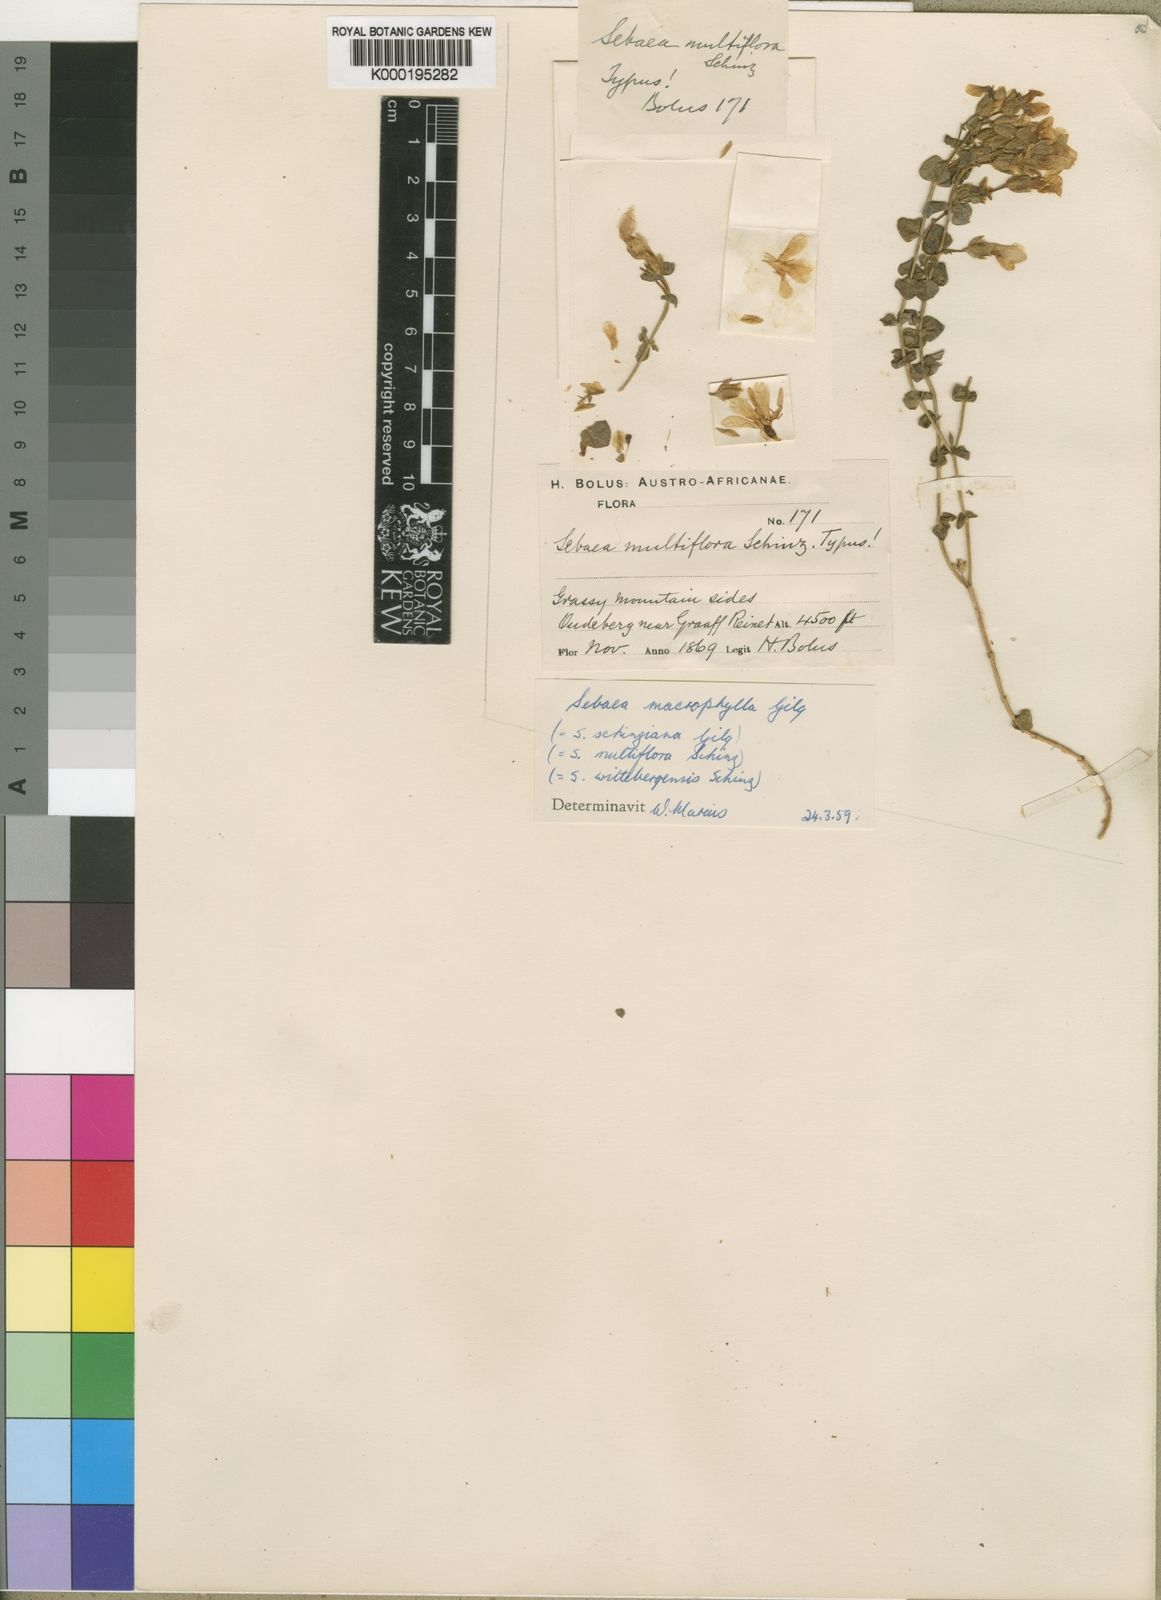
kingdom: Plantae
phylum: Tracheophyta
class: Magnoliopsida
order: Gentianales
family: Gentianaceae
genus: Sebaea
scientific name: Sebaea macrophylla
